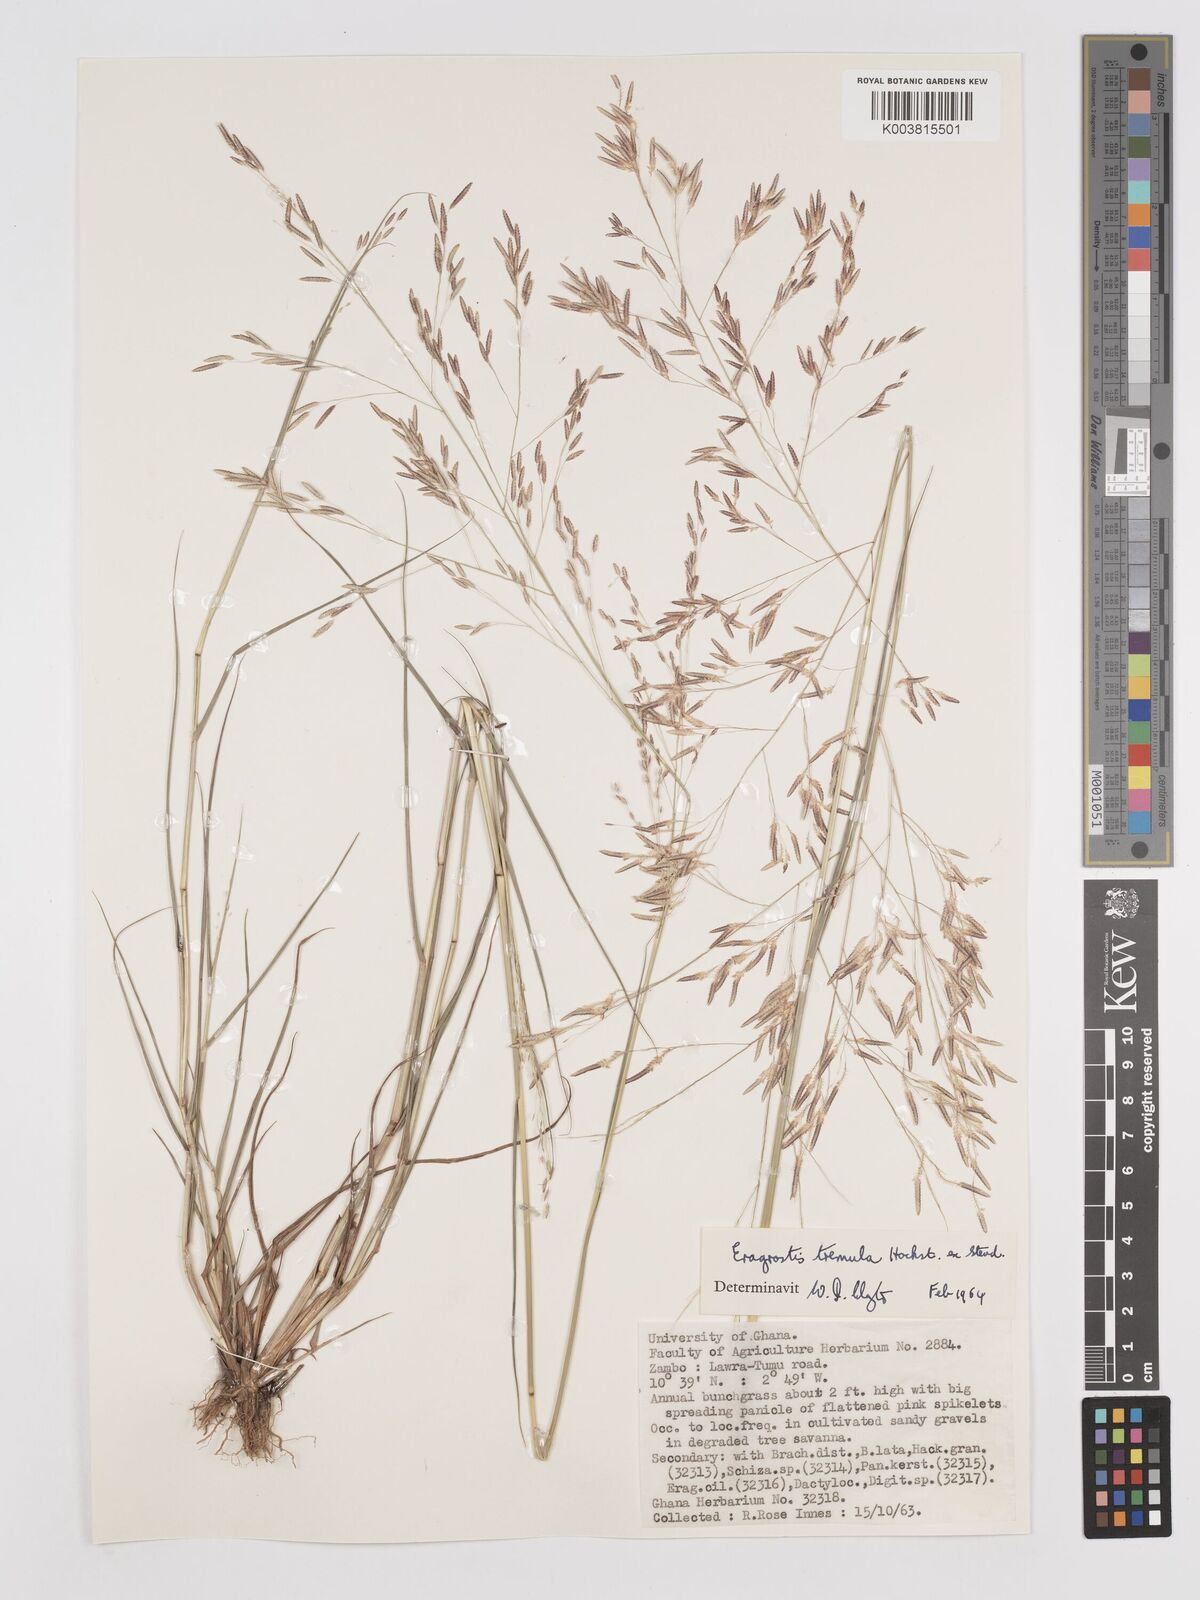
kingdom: Plantae
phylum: Tracheophyta
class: Liliopsida
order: Poales
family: Poaceae
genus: Eragrostis
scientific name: Eragrostis tremula
